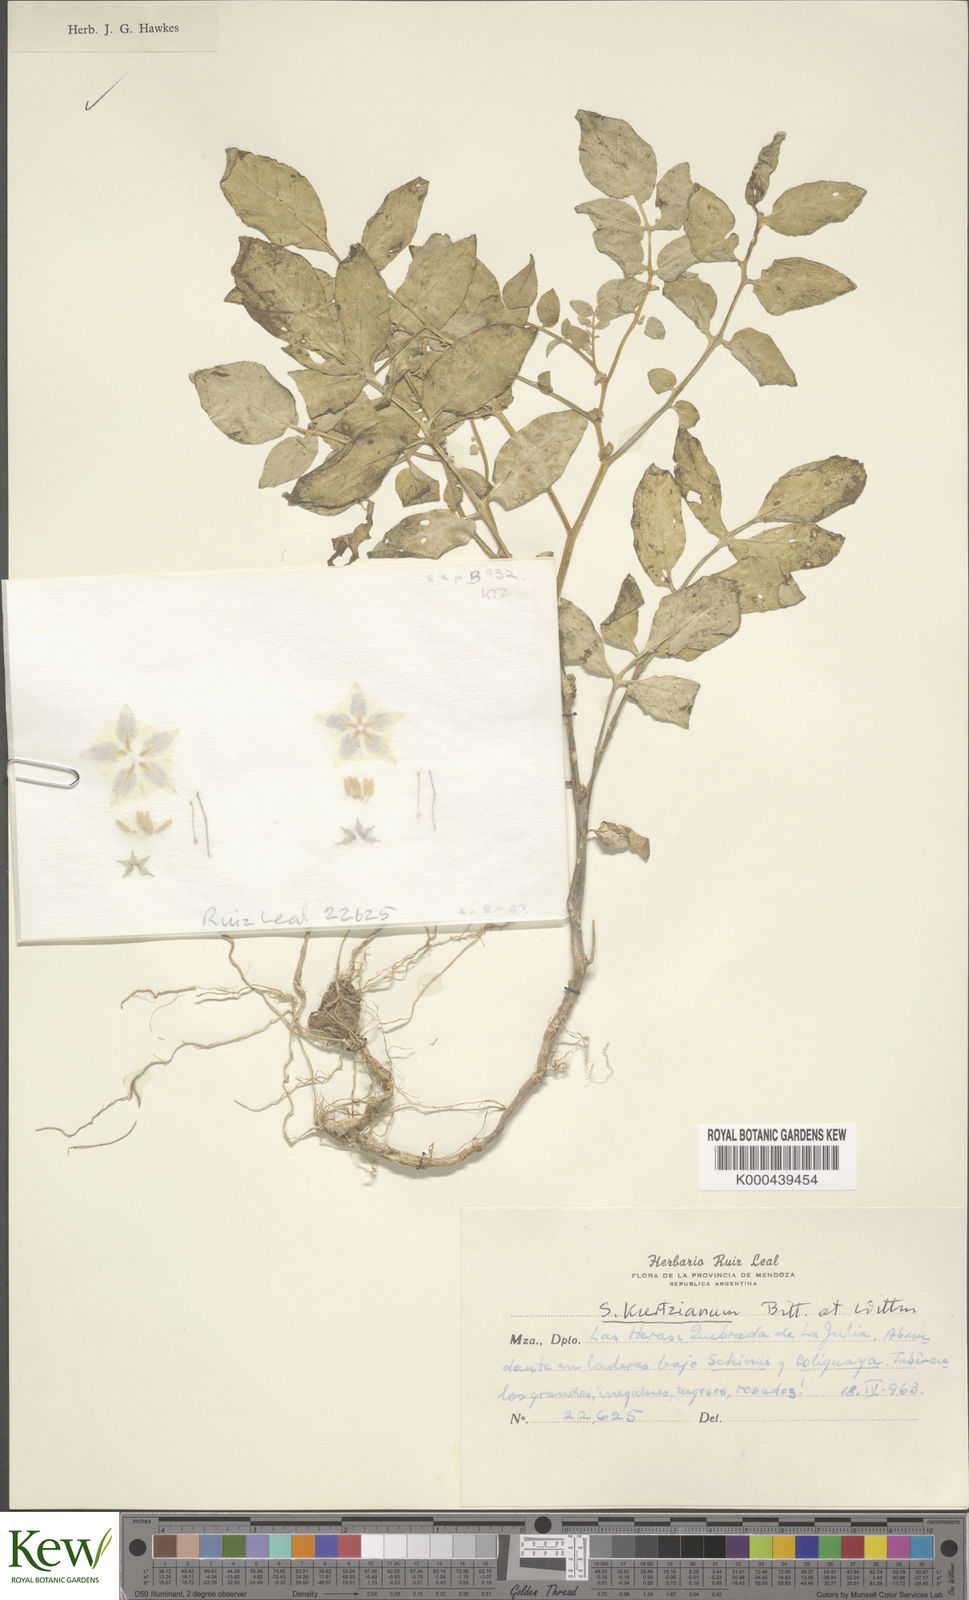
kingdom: Plantae
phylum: Tracheophyta
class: Magnoliopsida
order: Solanales
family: Solanaceae
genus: Solanum
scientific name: Solanum kurtzianum
